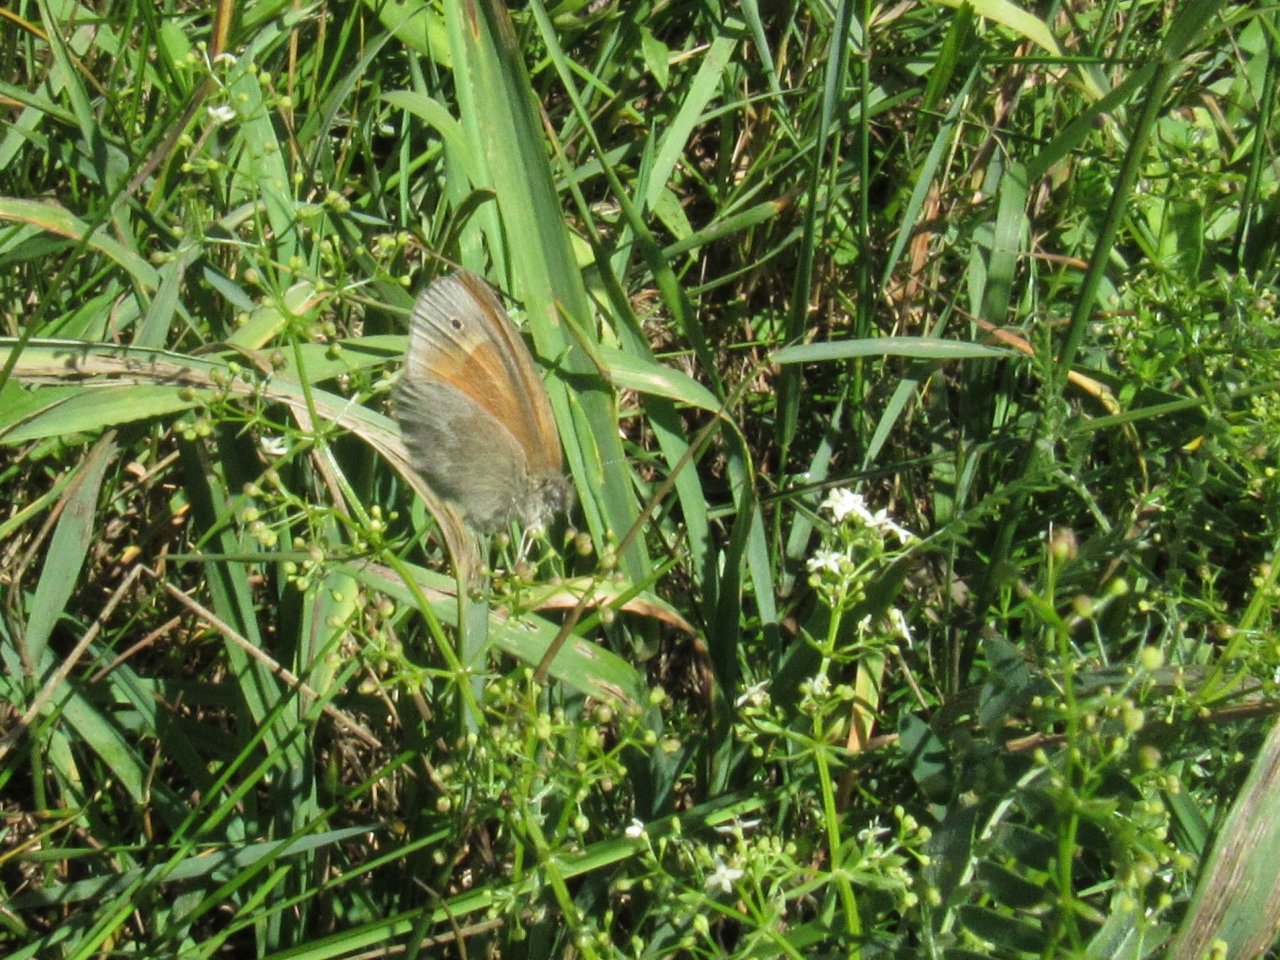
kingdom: Animalia
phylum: Arthropoda
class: Insecta
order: Lepidoptera
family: Nymphalidae
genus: Coenonympha
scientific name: Coenonympha tullia
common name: Large Heath
